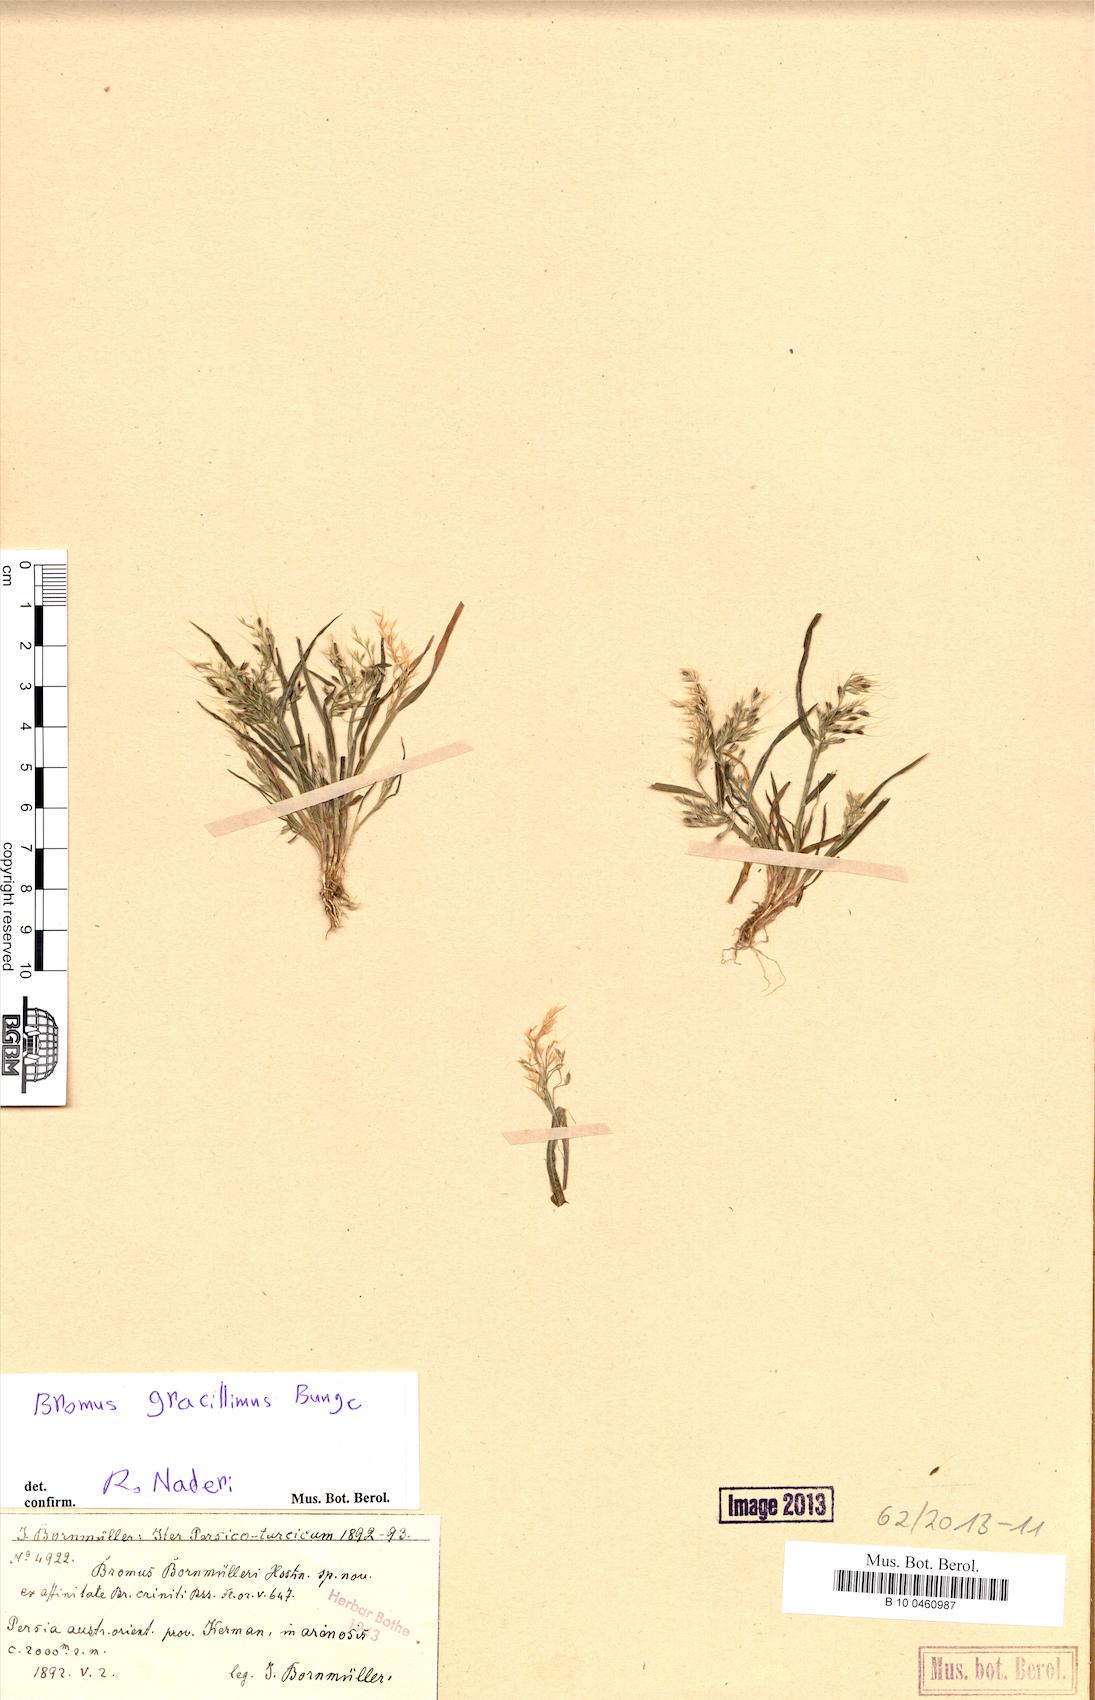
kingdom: Plantae
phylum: Tracheophyta
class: Liliopsida
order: Poales
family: Poaceae
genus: Bromus
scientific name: Bromus gracillimus
